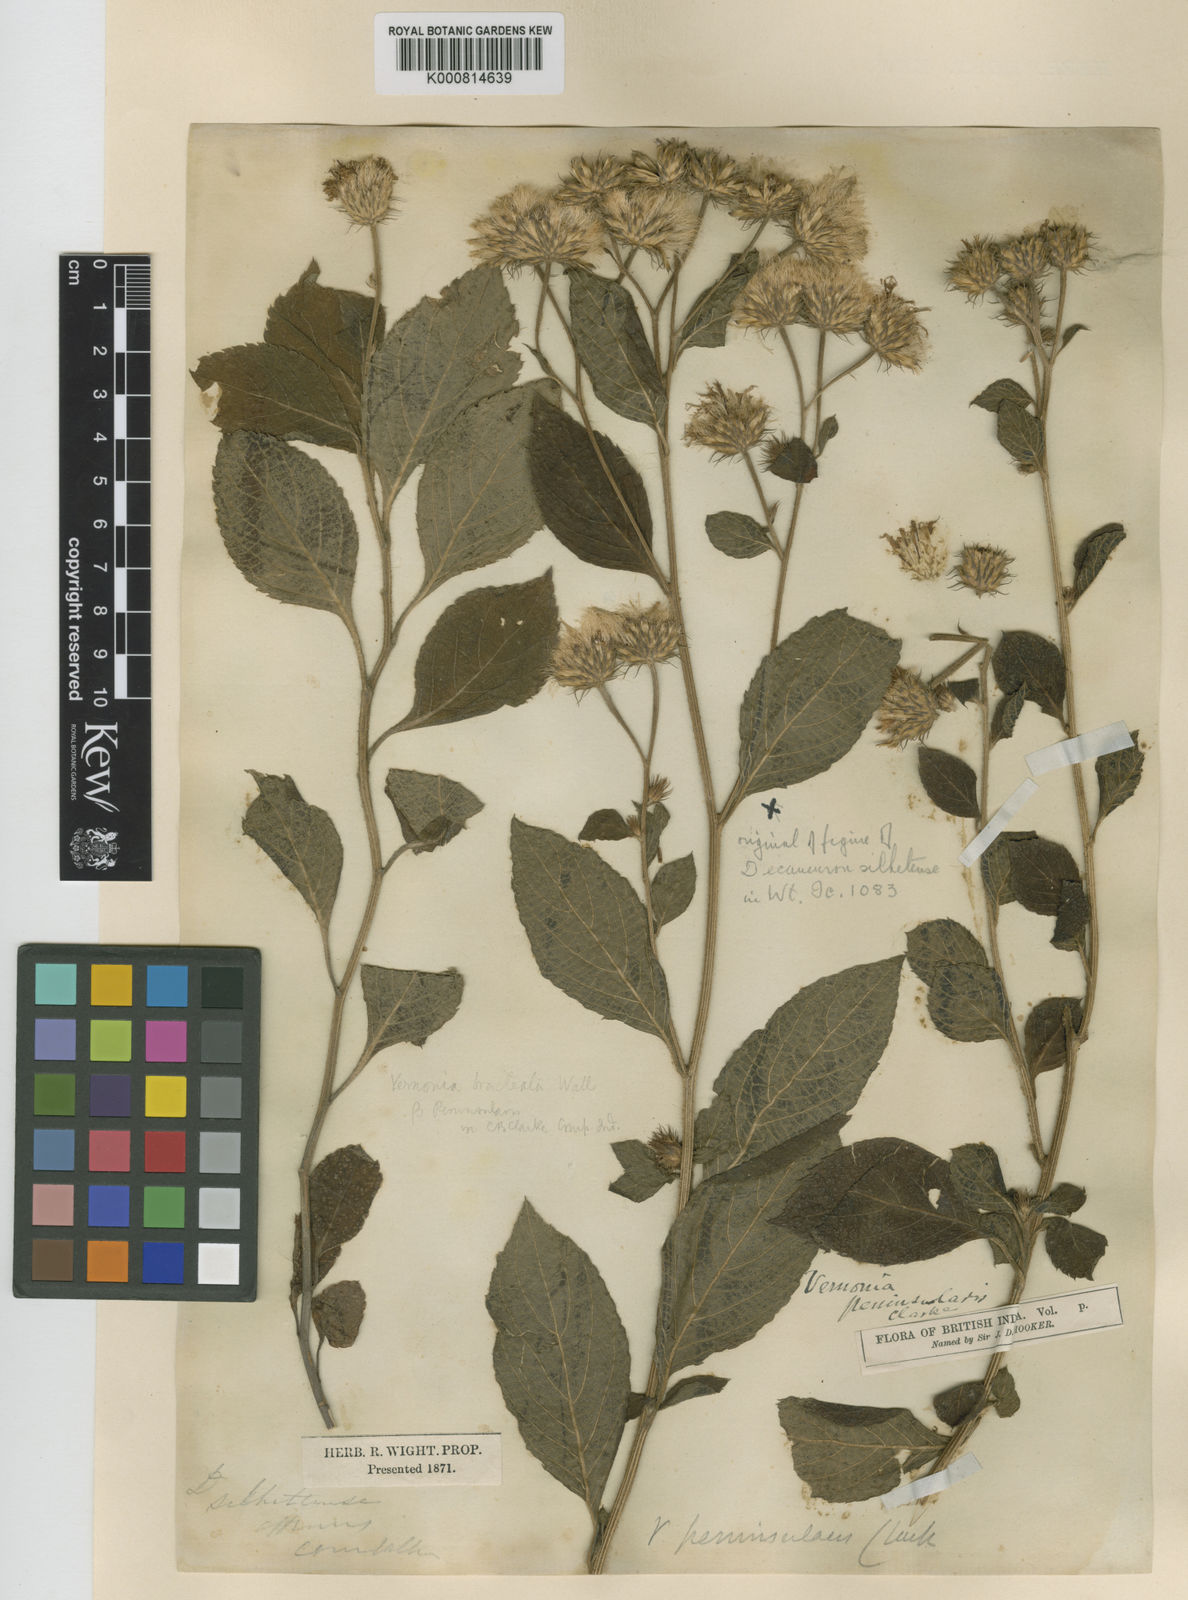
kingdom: Plantae
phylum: Tracheophyta
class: Magnoliopsida
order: Asterales
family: Asteraceae
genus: Acilepis
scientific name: Acilepis peninsularis
